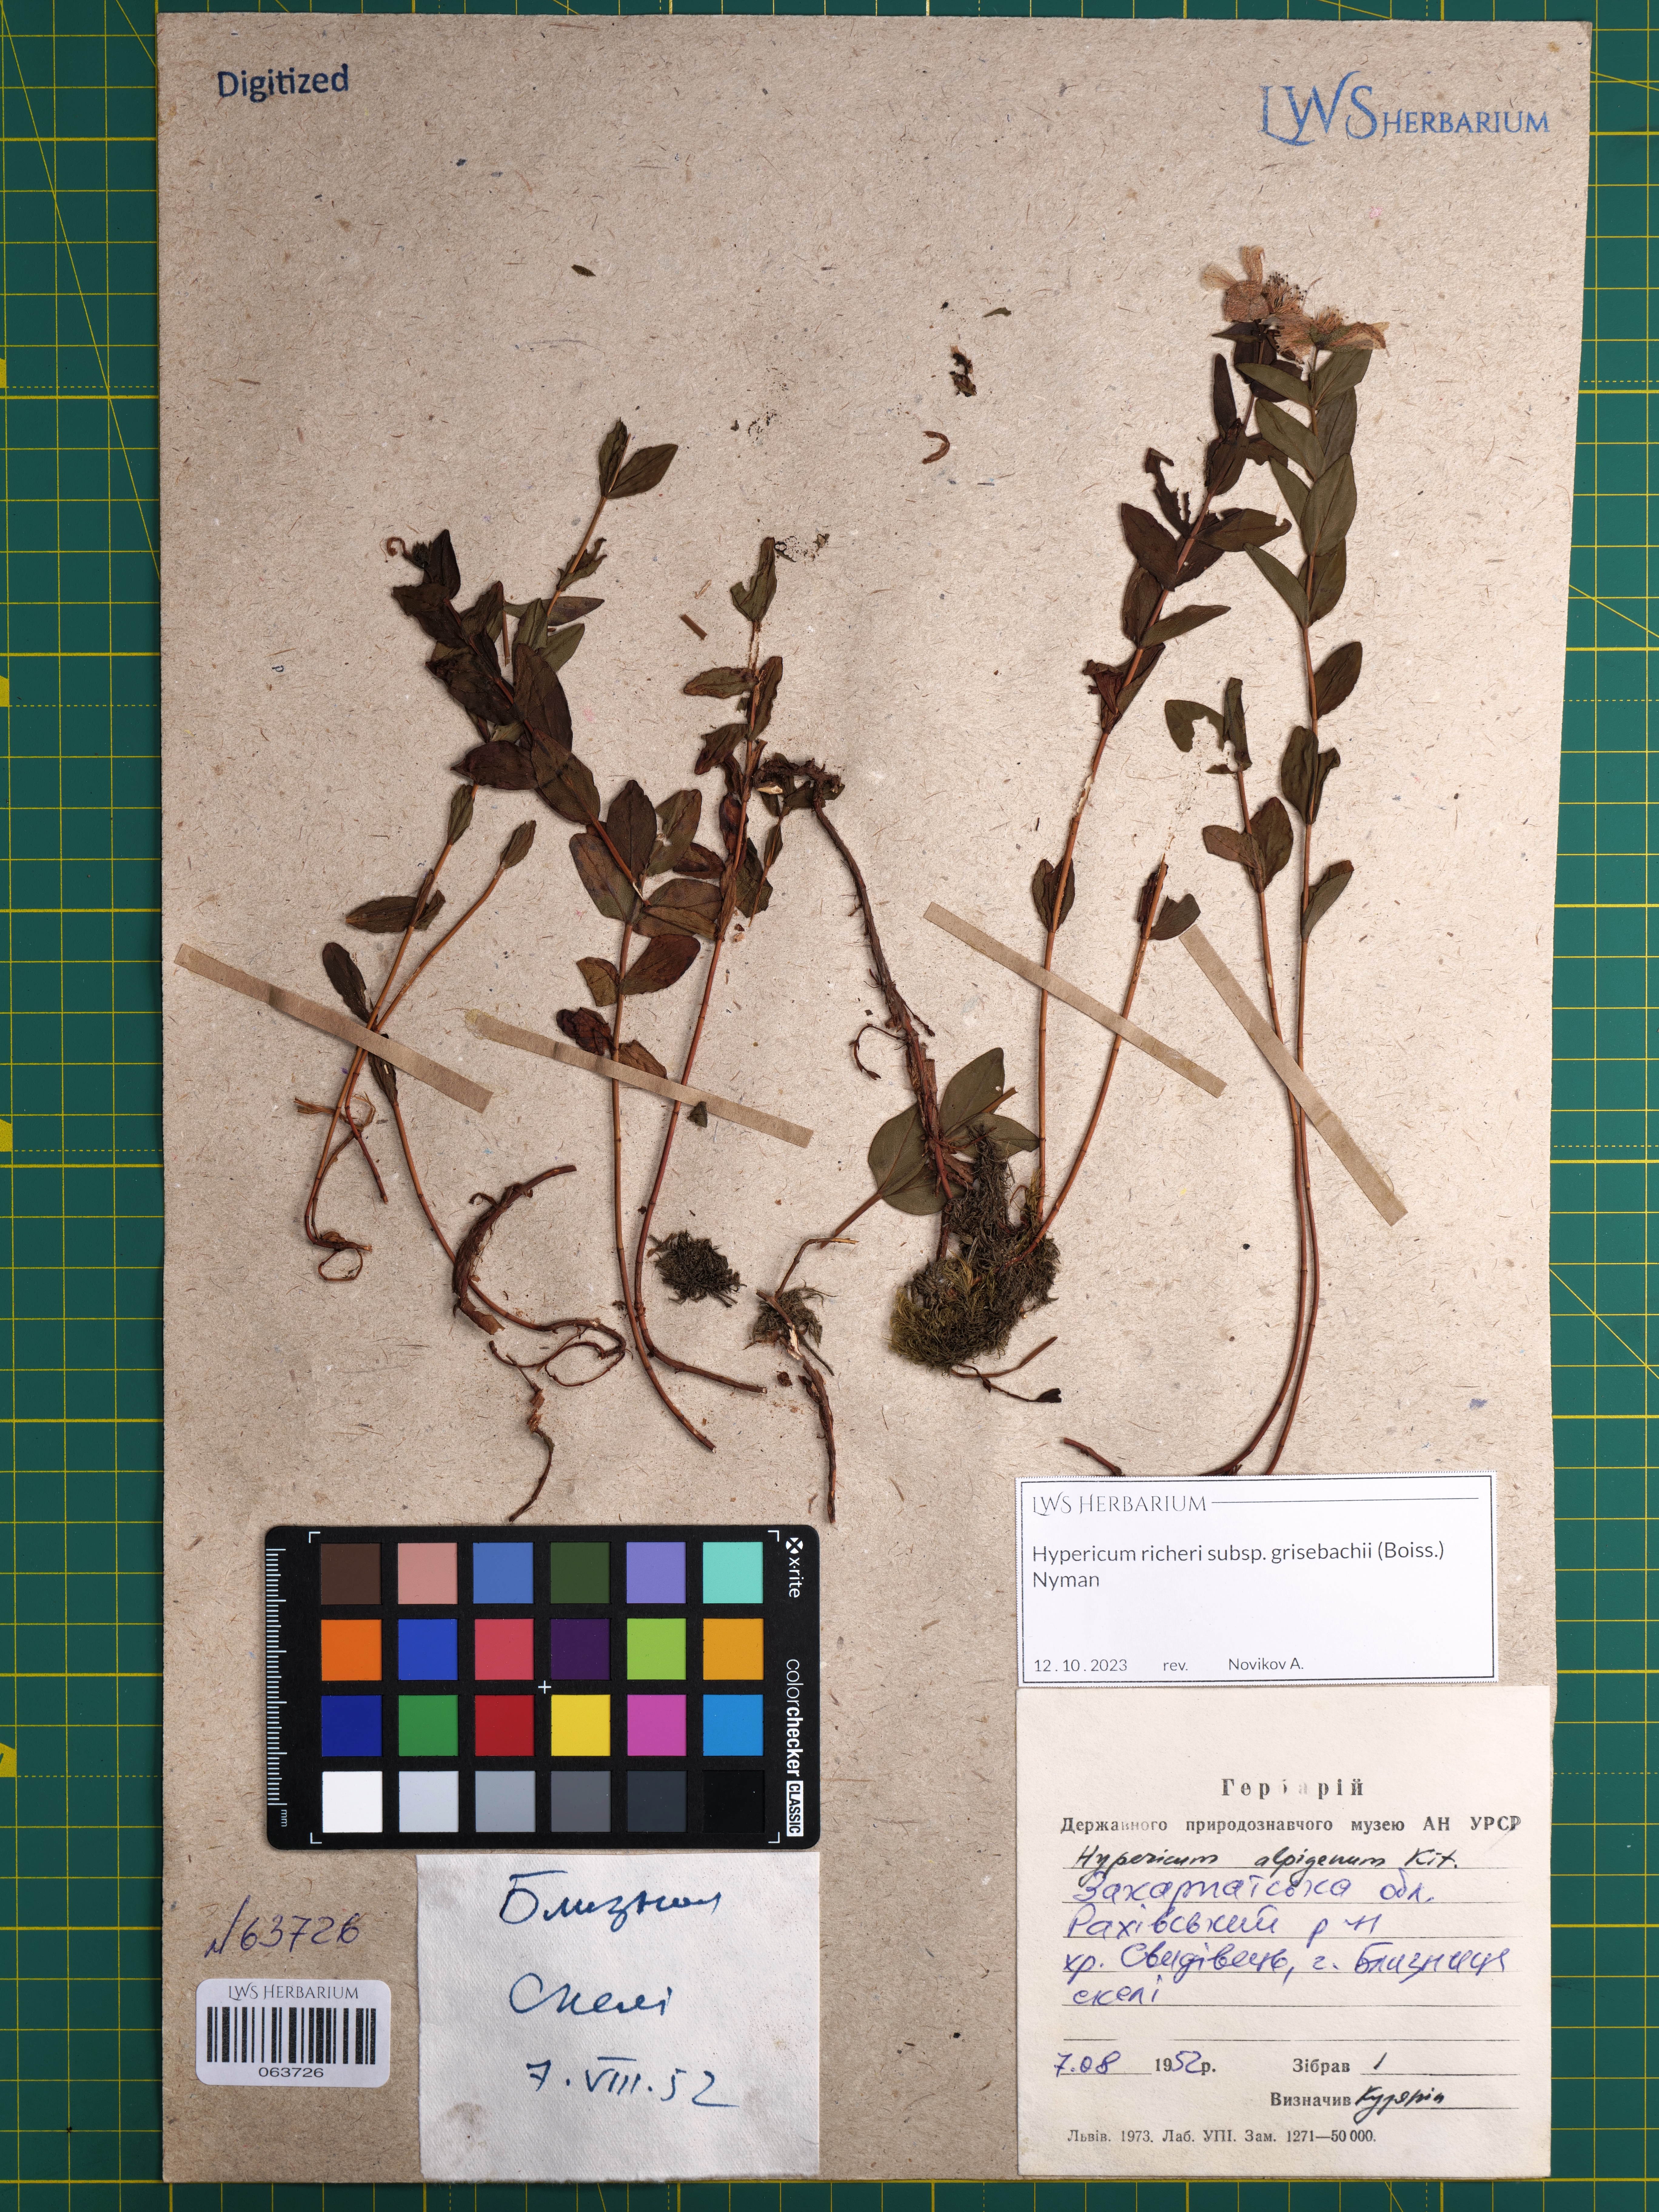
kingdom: Plantae
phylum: Tracheophyta
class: Magnoliopsida
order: Malpighiales
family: Hypericaceae
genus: Hypericum
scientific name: Hypericum richeri
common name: Alpine st john's-wort
